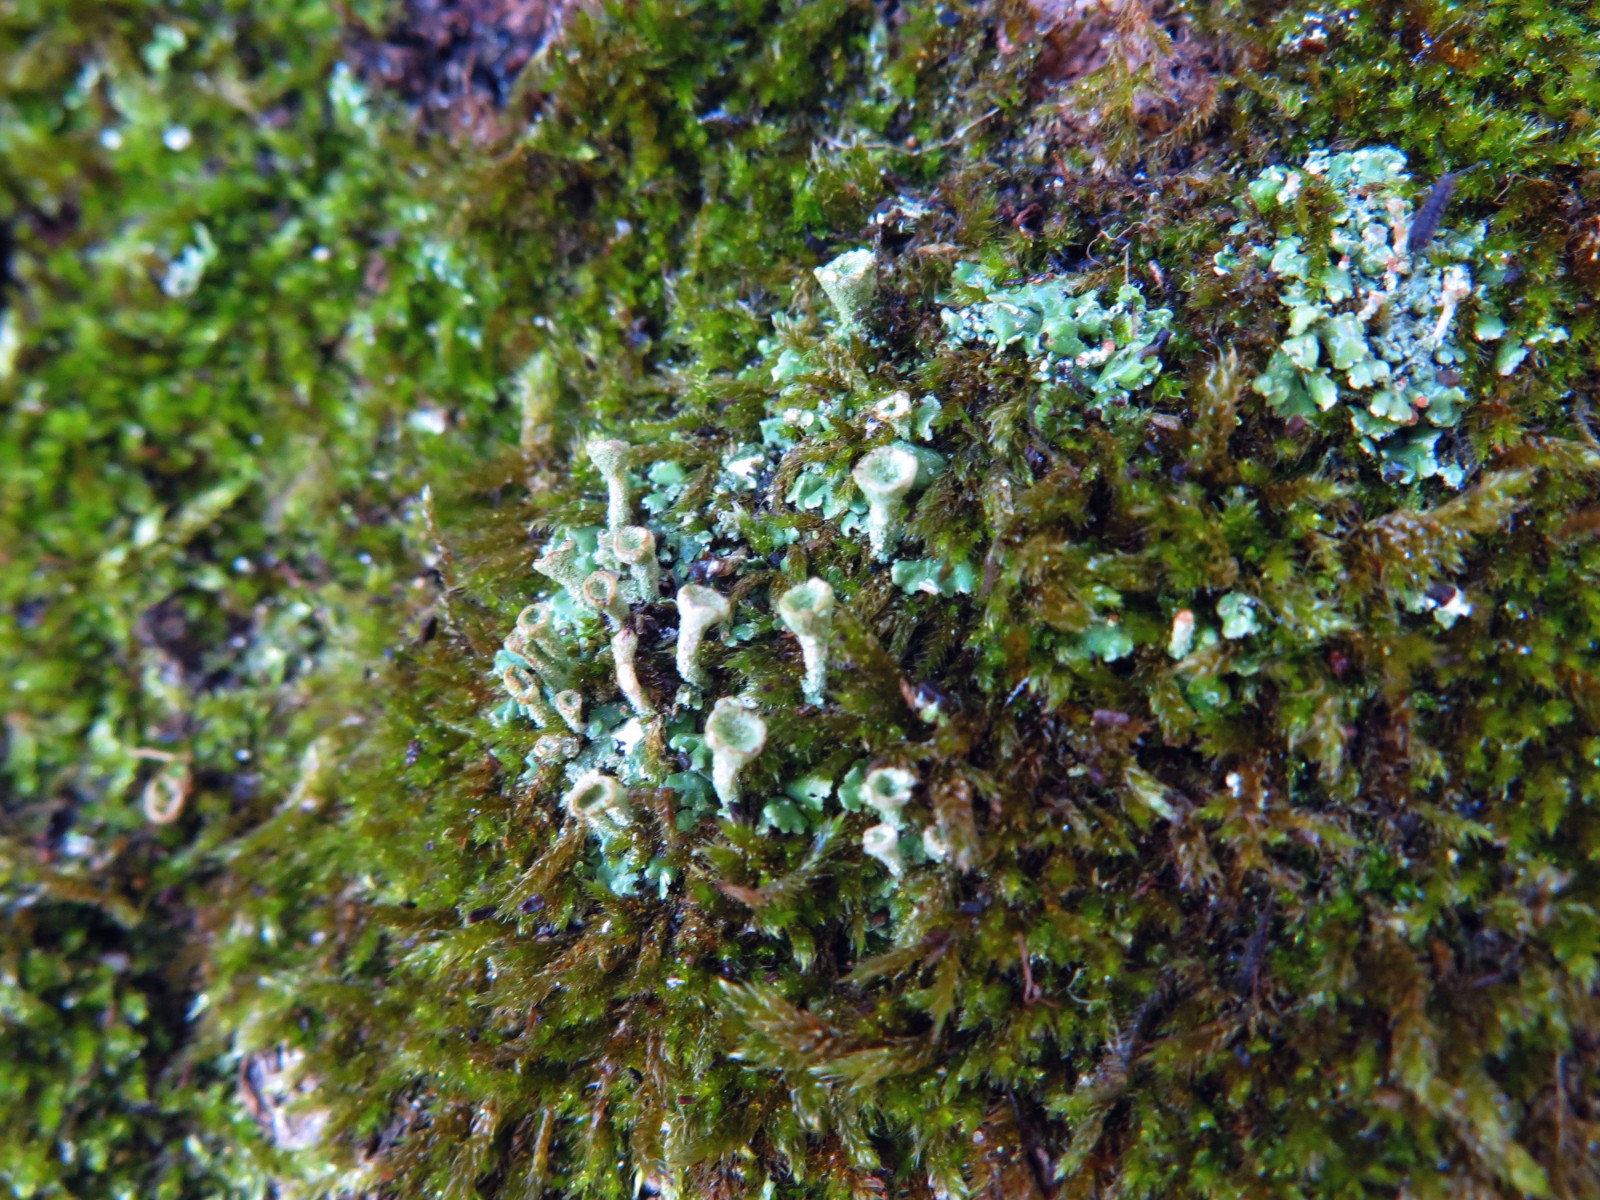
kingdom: Fungi
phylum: Ascomycota
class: Lecanoromycetes
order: Lecanorales
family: Cladoniaceae
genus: Cladonia
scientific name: Cladonia fimbriata
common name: bleggrøn bægerlav
